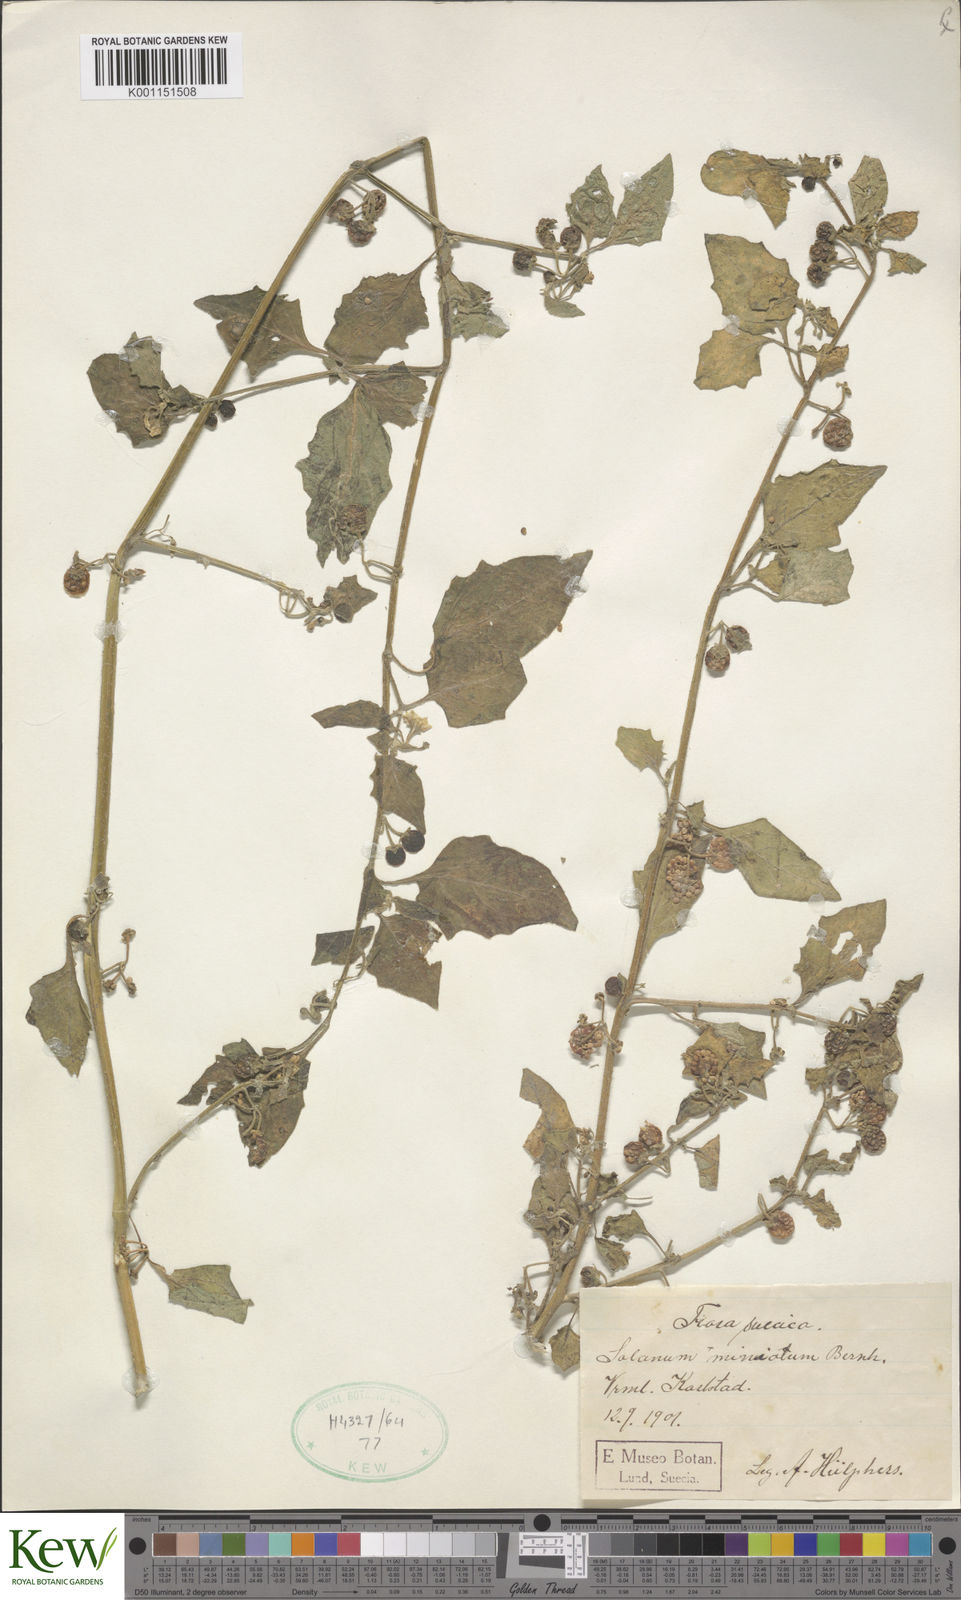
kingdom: Plantae
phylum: Tracheophyta
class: Magnoliopsida
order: Solanales
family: Solanaceae
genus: Solanum
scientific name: Solanum villosum
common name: Red nightshade
